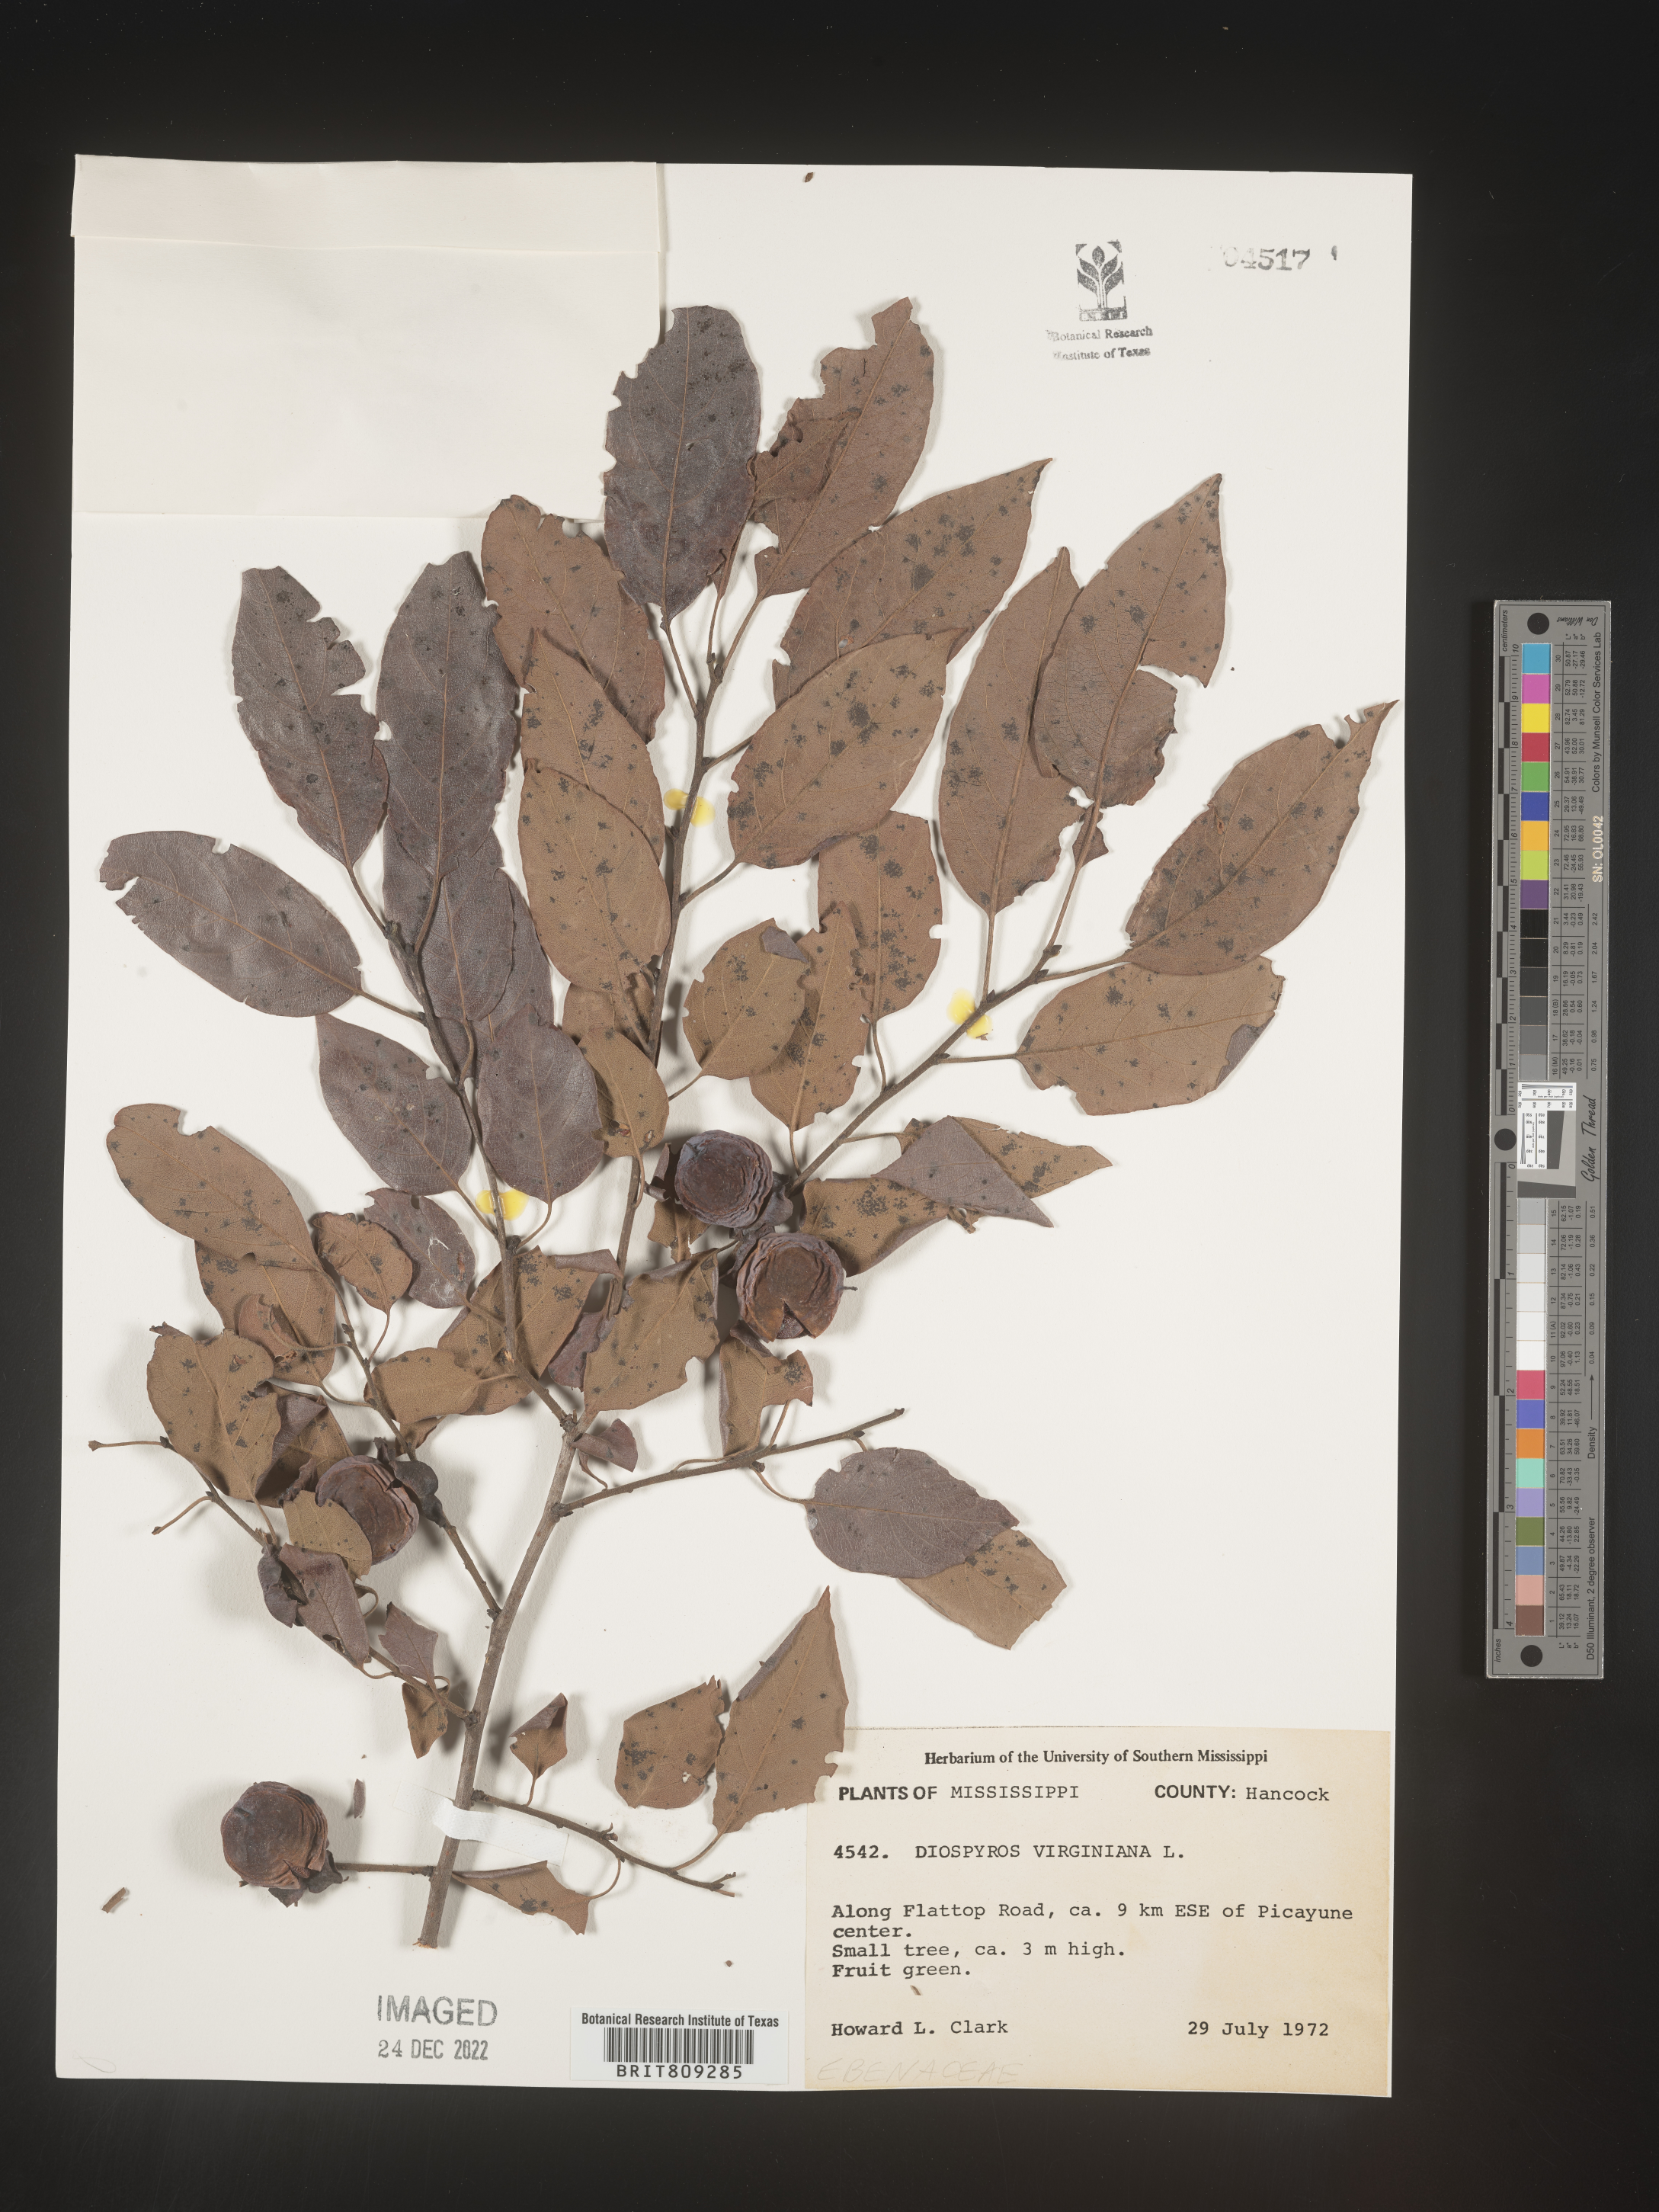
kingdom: Plantae
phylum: Tracheophyta
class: Magnoliopsida
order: Ericales
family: Ebenaceae
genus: Diospyros
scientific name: Diospyros virginiana
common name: Persimmon
